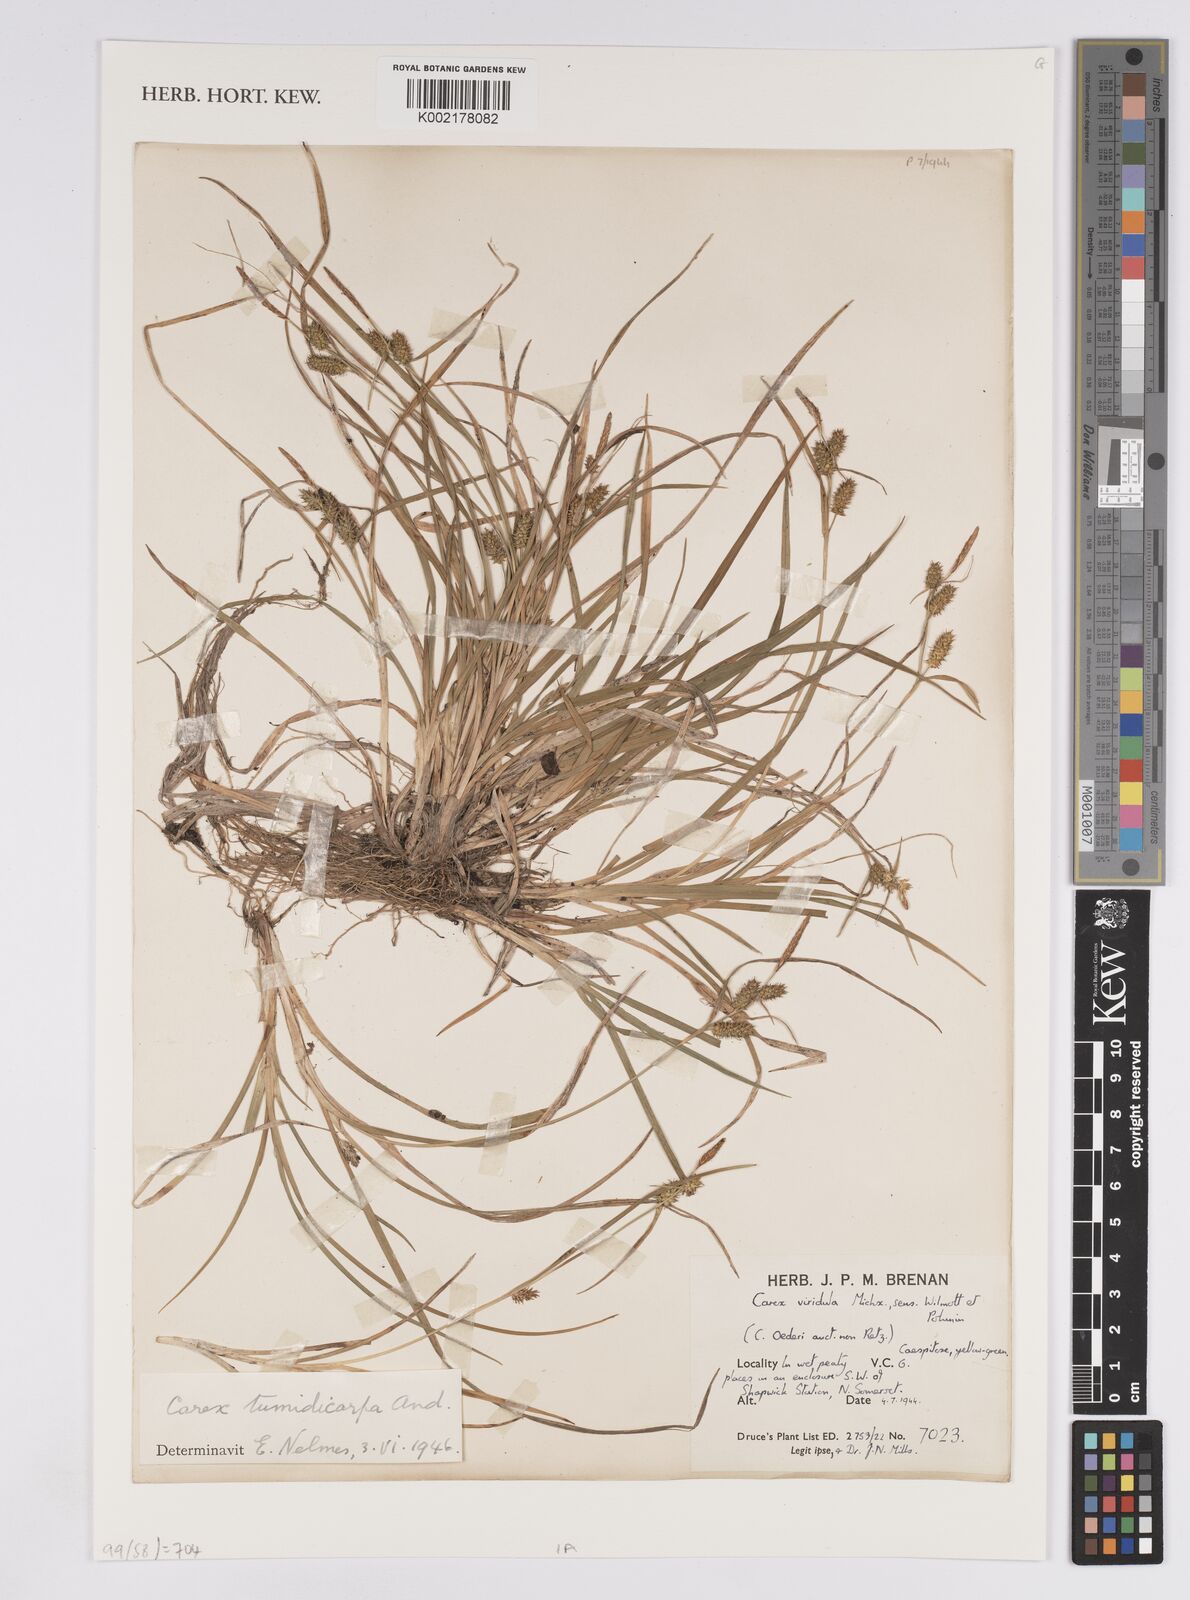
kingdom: Plantae
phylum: Tracheophyta
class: Liliopsida
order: Poales
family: Cyperaceae
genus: Carex
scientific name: Carex demissa
